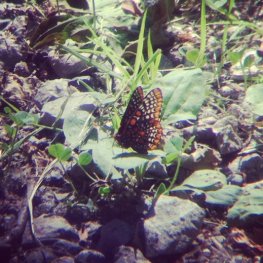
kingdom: Animalia
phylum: Arthropoda
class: Insecta
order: Lepidoptera
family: Nymphalidae
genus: Euphydryas
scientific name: Euphydryas phaeton
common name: Baltimore Checkerspot
